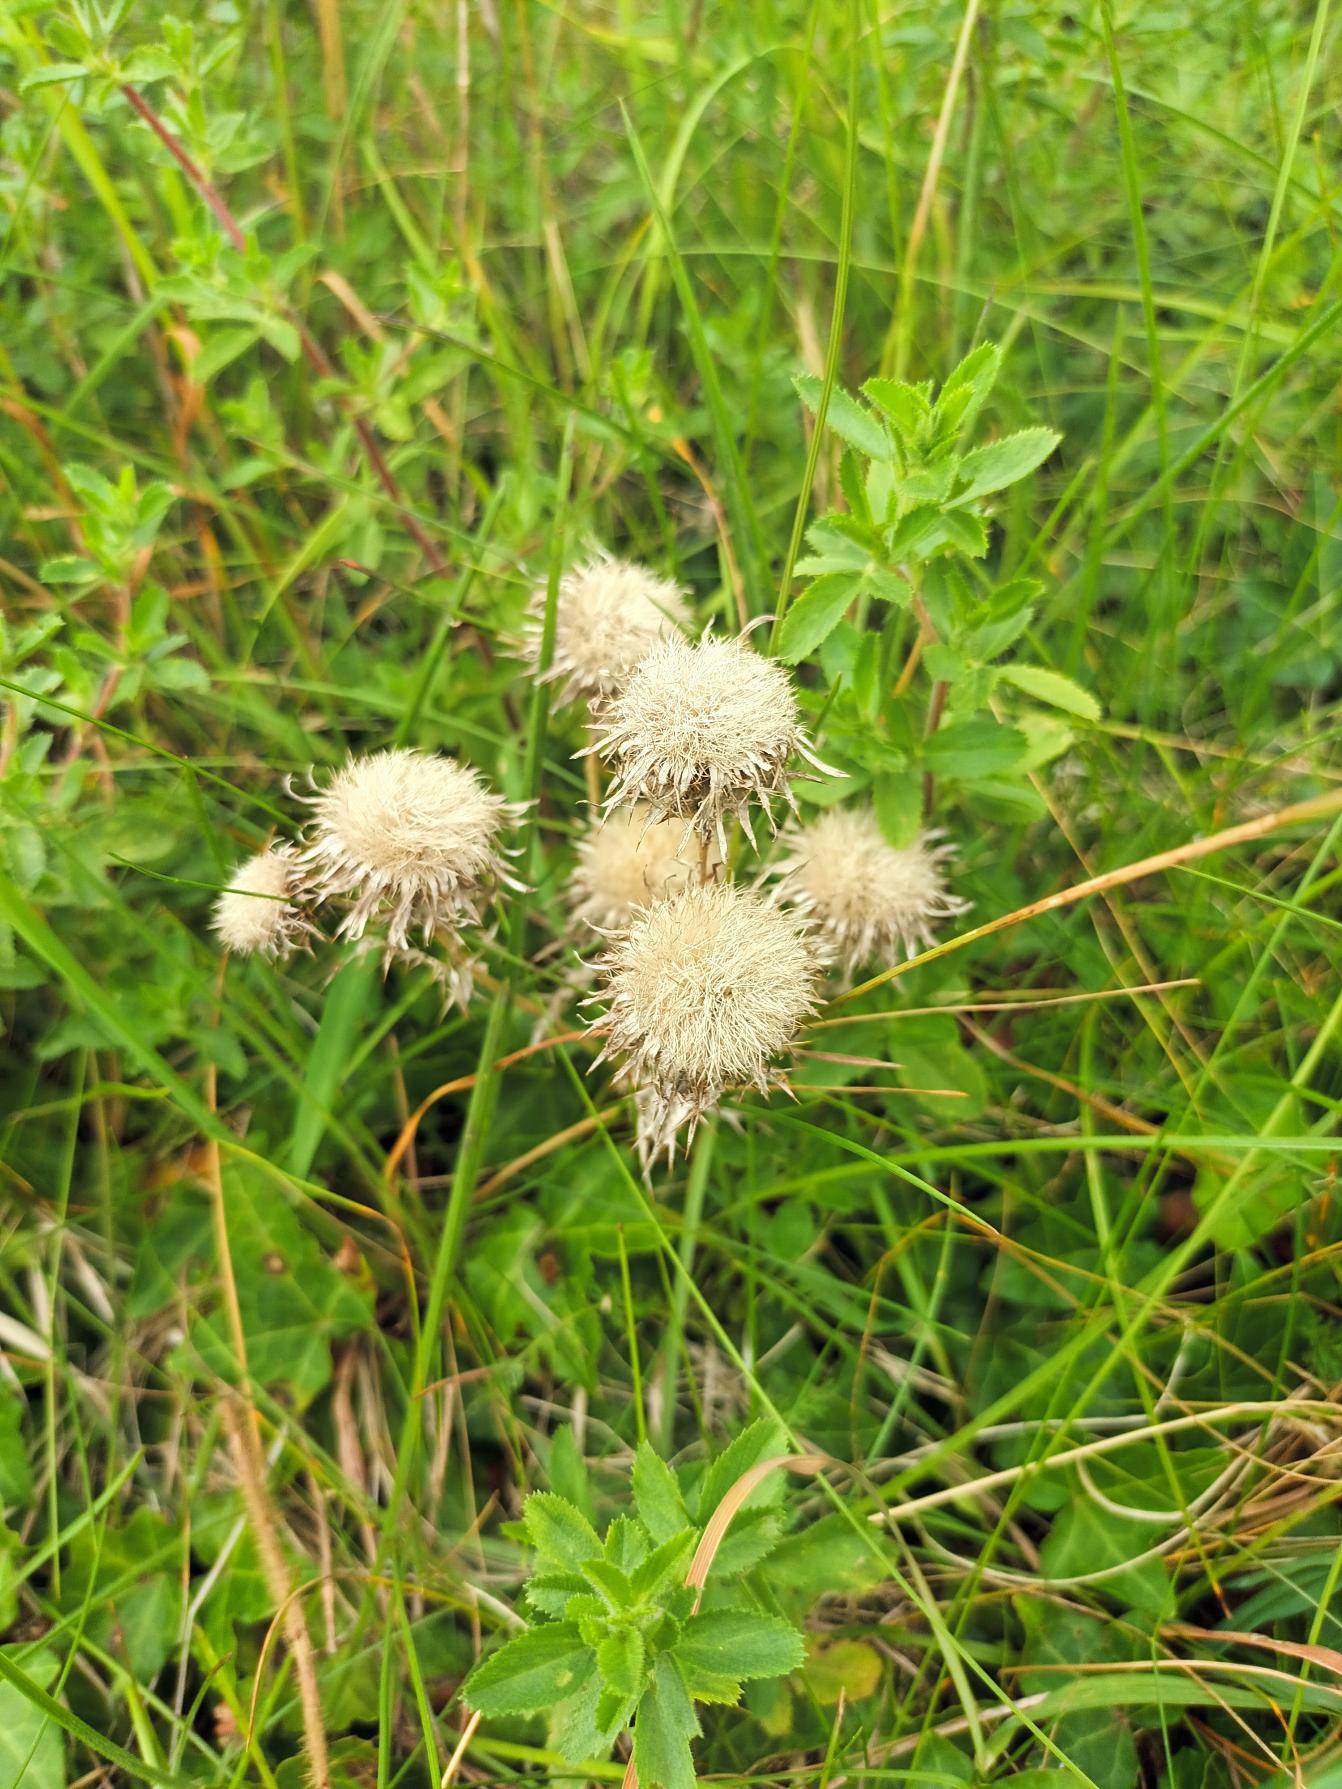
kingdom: Plantae
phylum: Tracheophyta
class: Magnoliopsida
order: Asterales
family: Asteraceae
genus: Carlina
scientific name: Carlina vulgaris
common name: Bakketidsel
